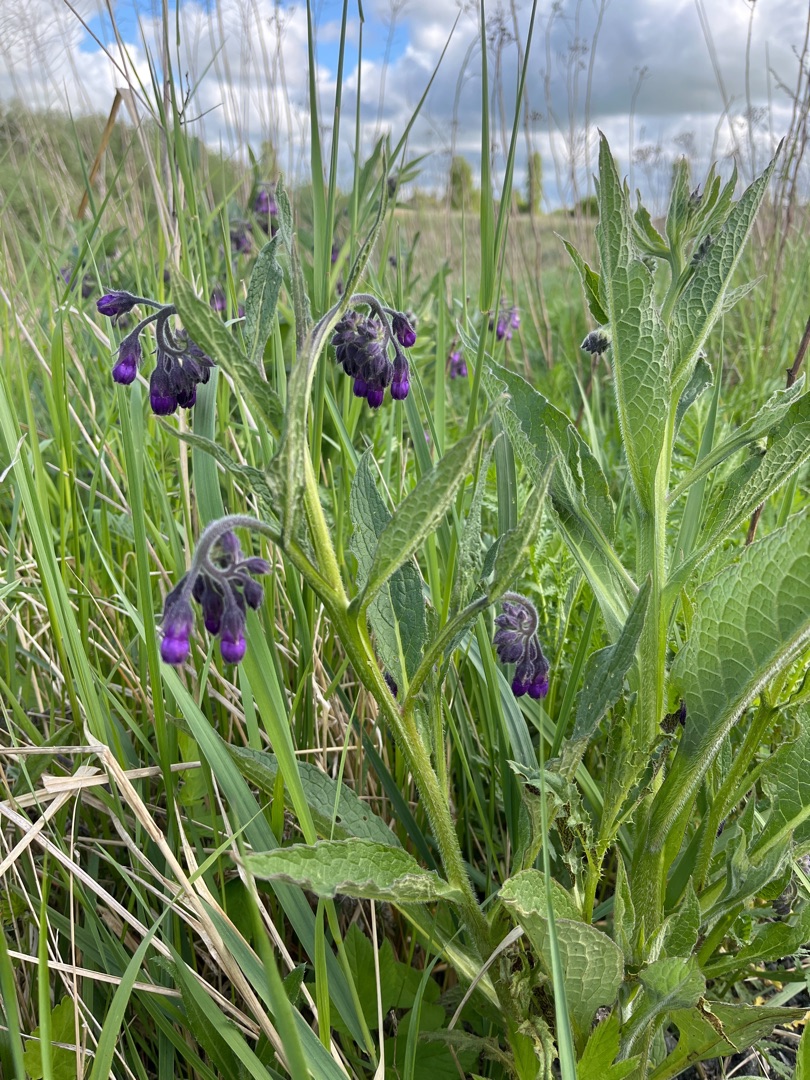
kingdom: Plantae
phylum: Tracheophyta
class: Magnoliopsida
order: Boraginales
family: Boraginaceae
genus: Symphytum
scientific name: Symphytum officinale
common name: Læge-kulsukker
